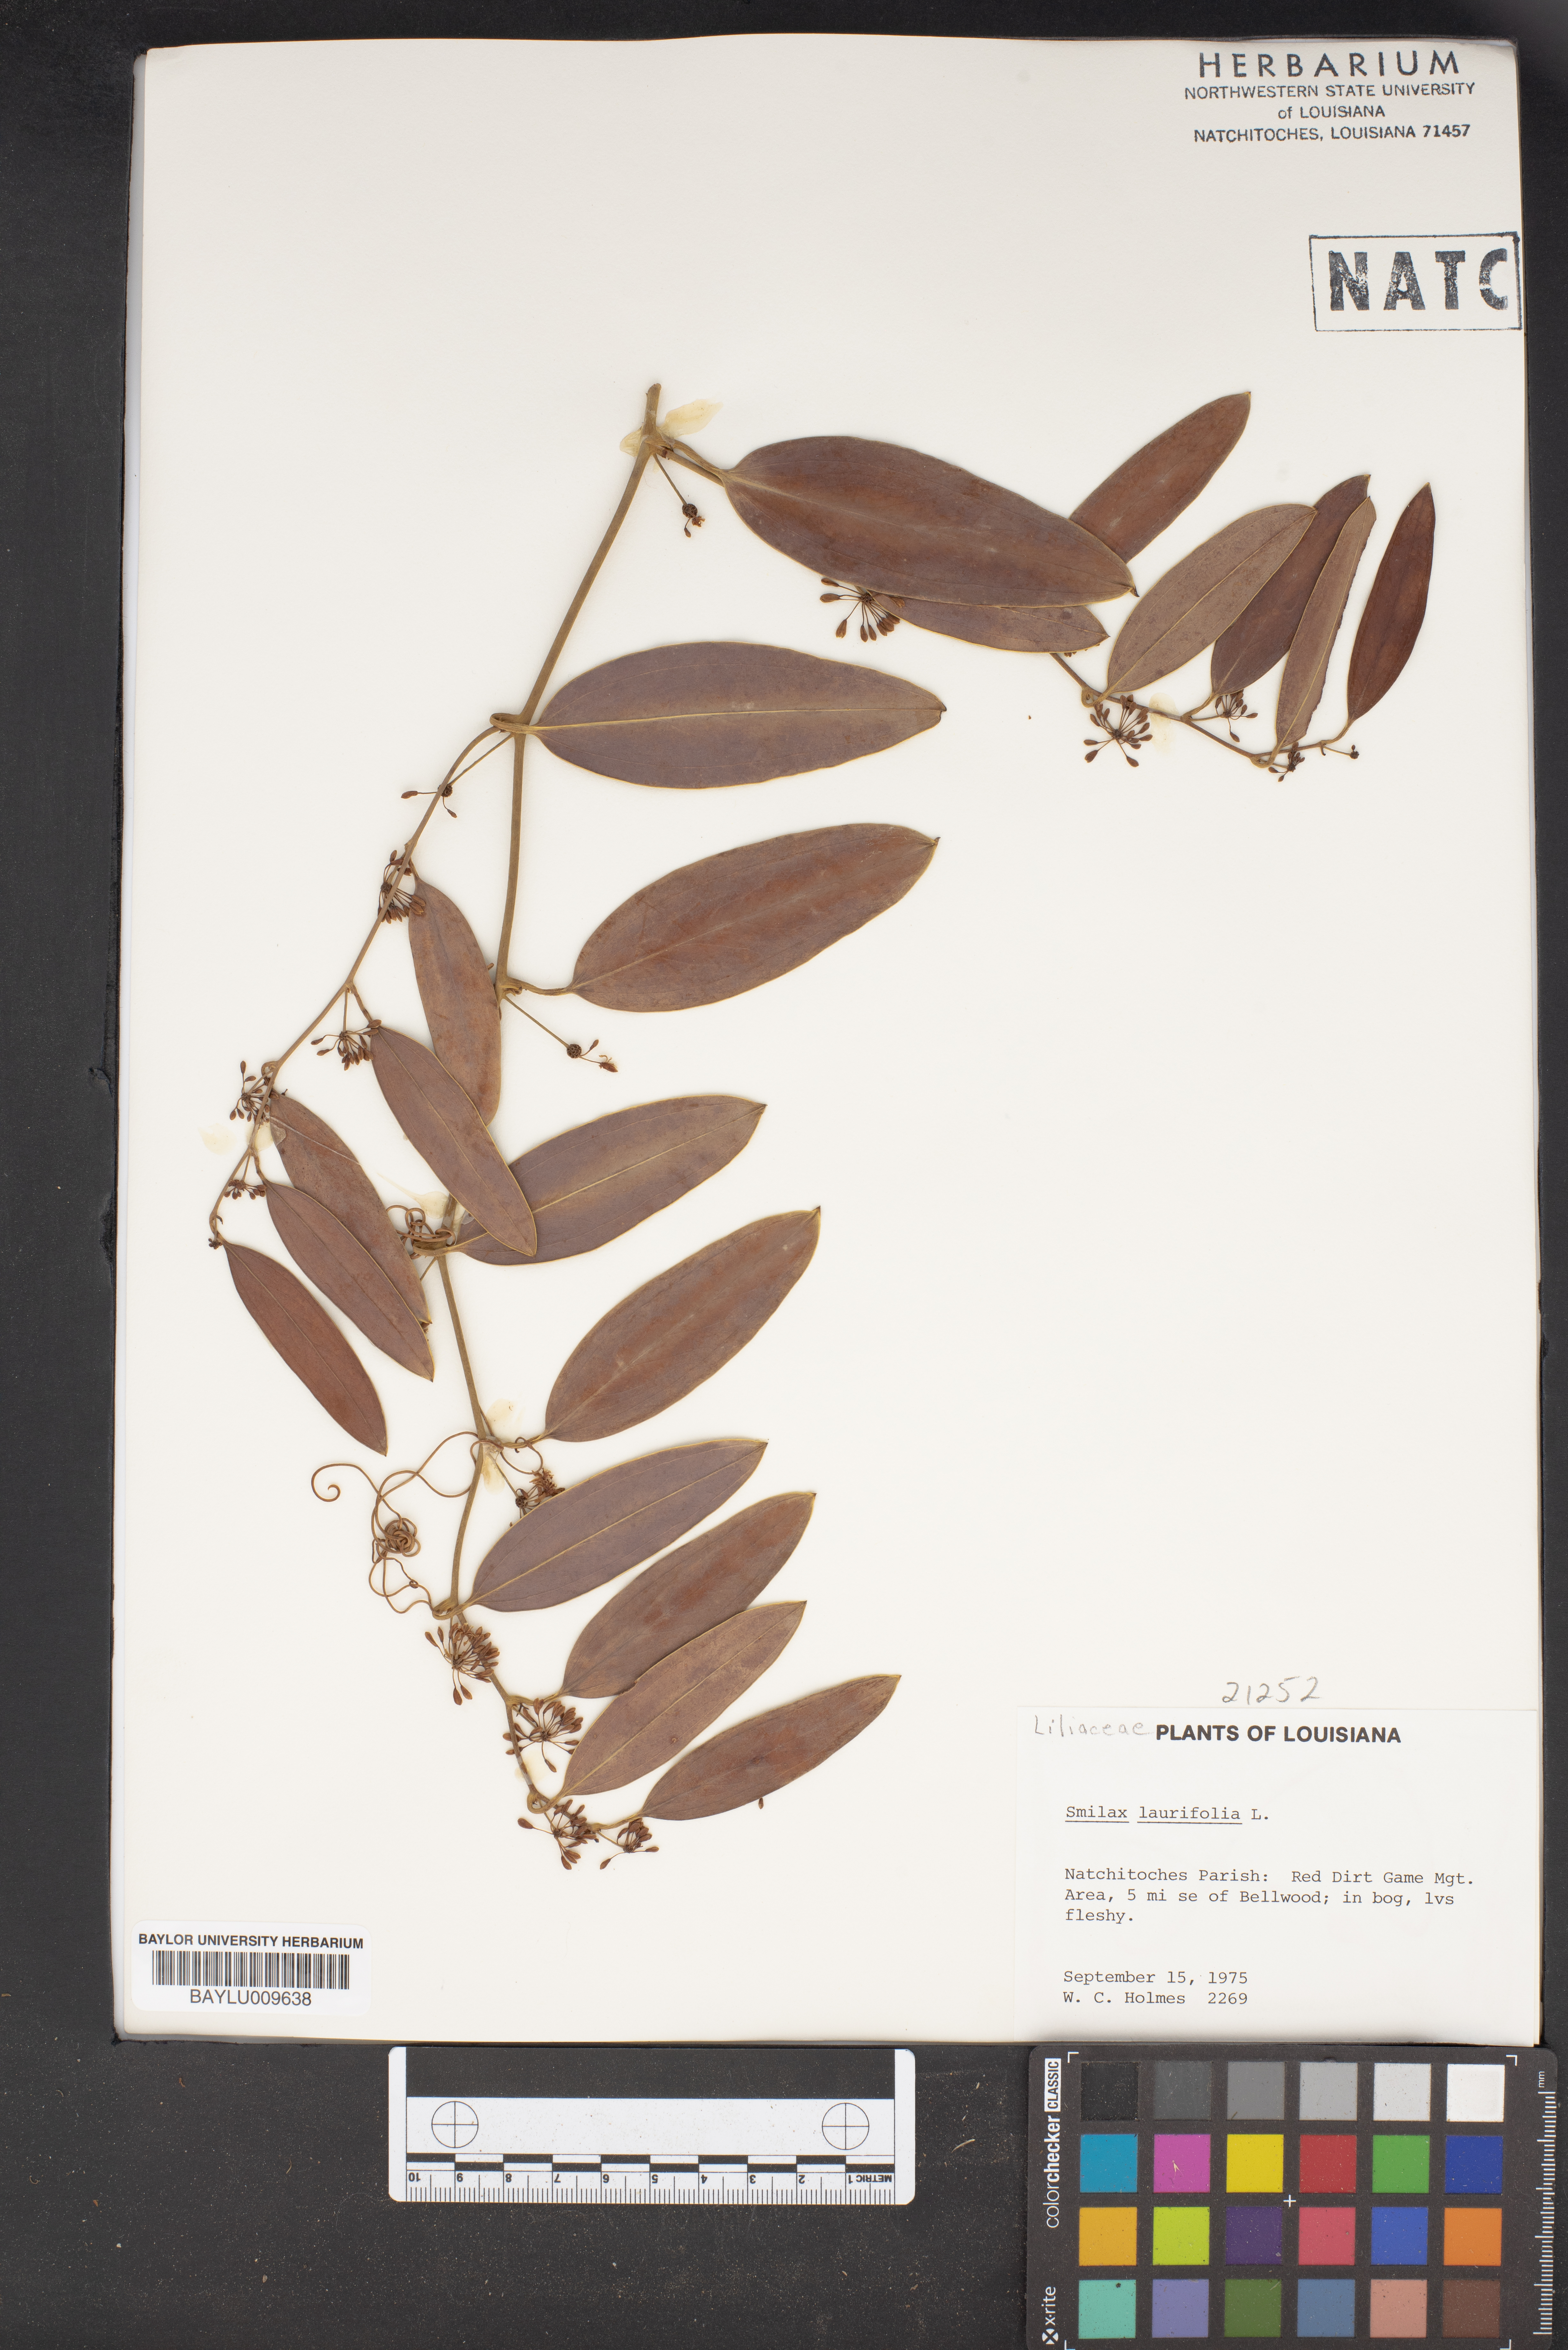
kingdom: Plantae
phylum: Tracheophyta
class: Liliopsida
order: Liliales
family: Smilacaceae
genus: Smilax
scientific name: Smilax laurifolia
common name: Bamboovine
